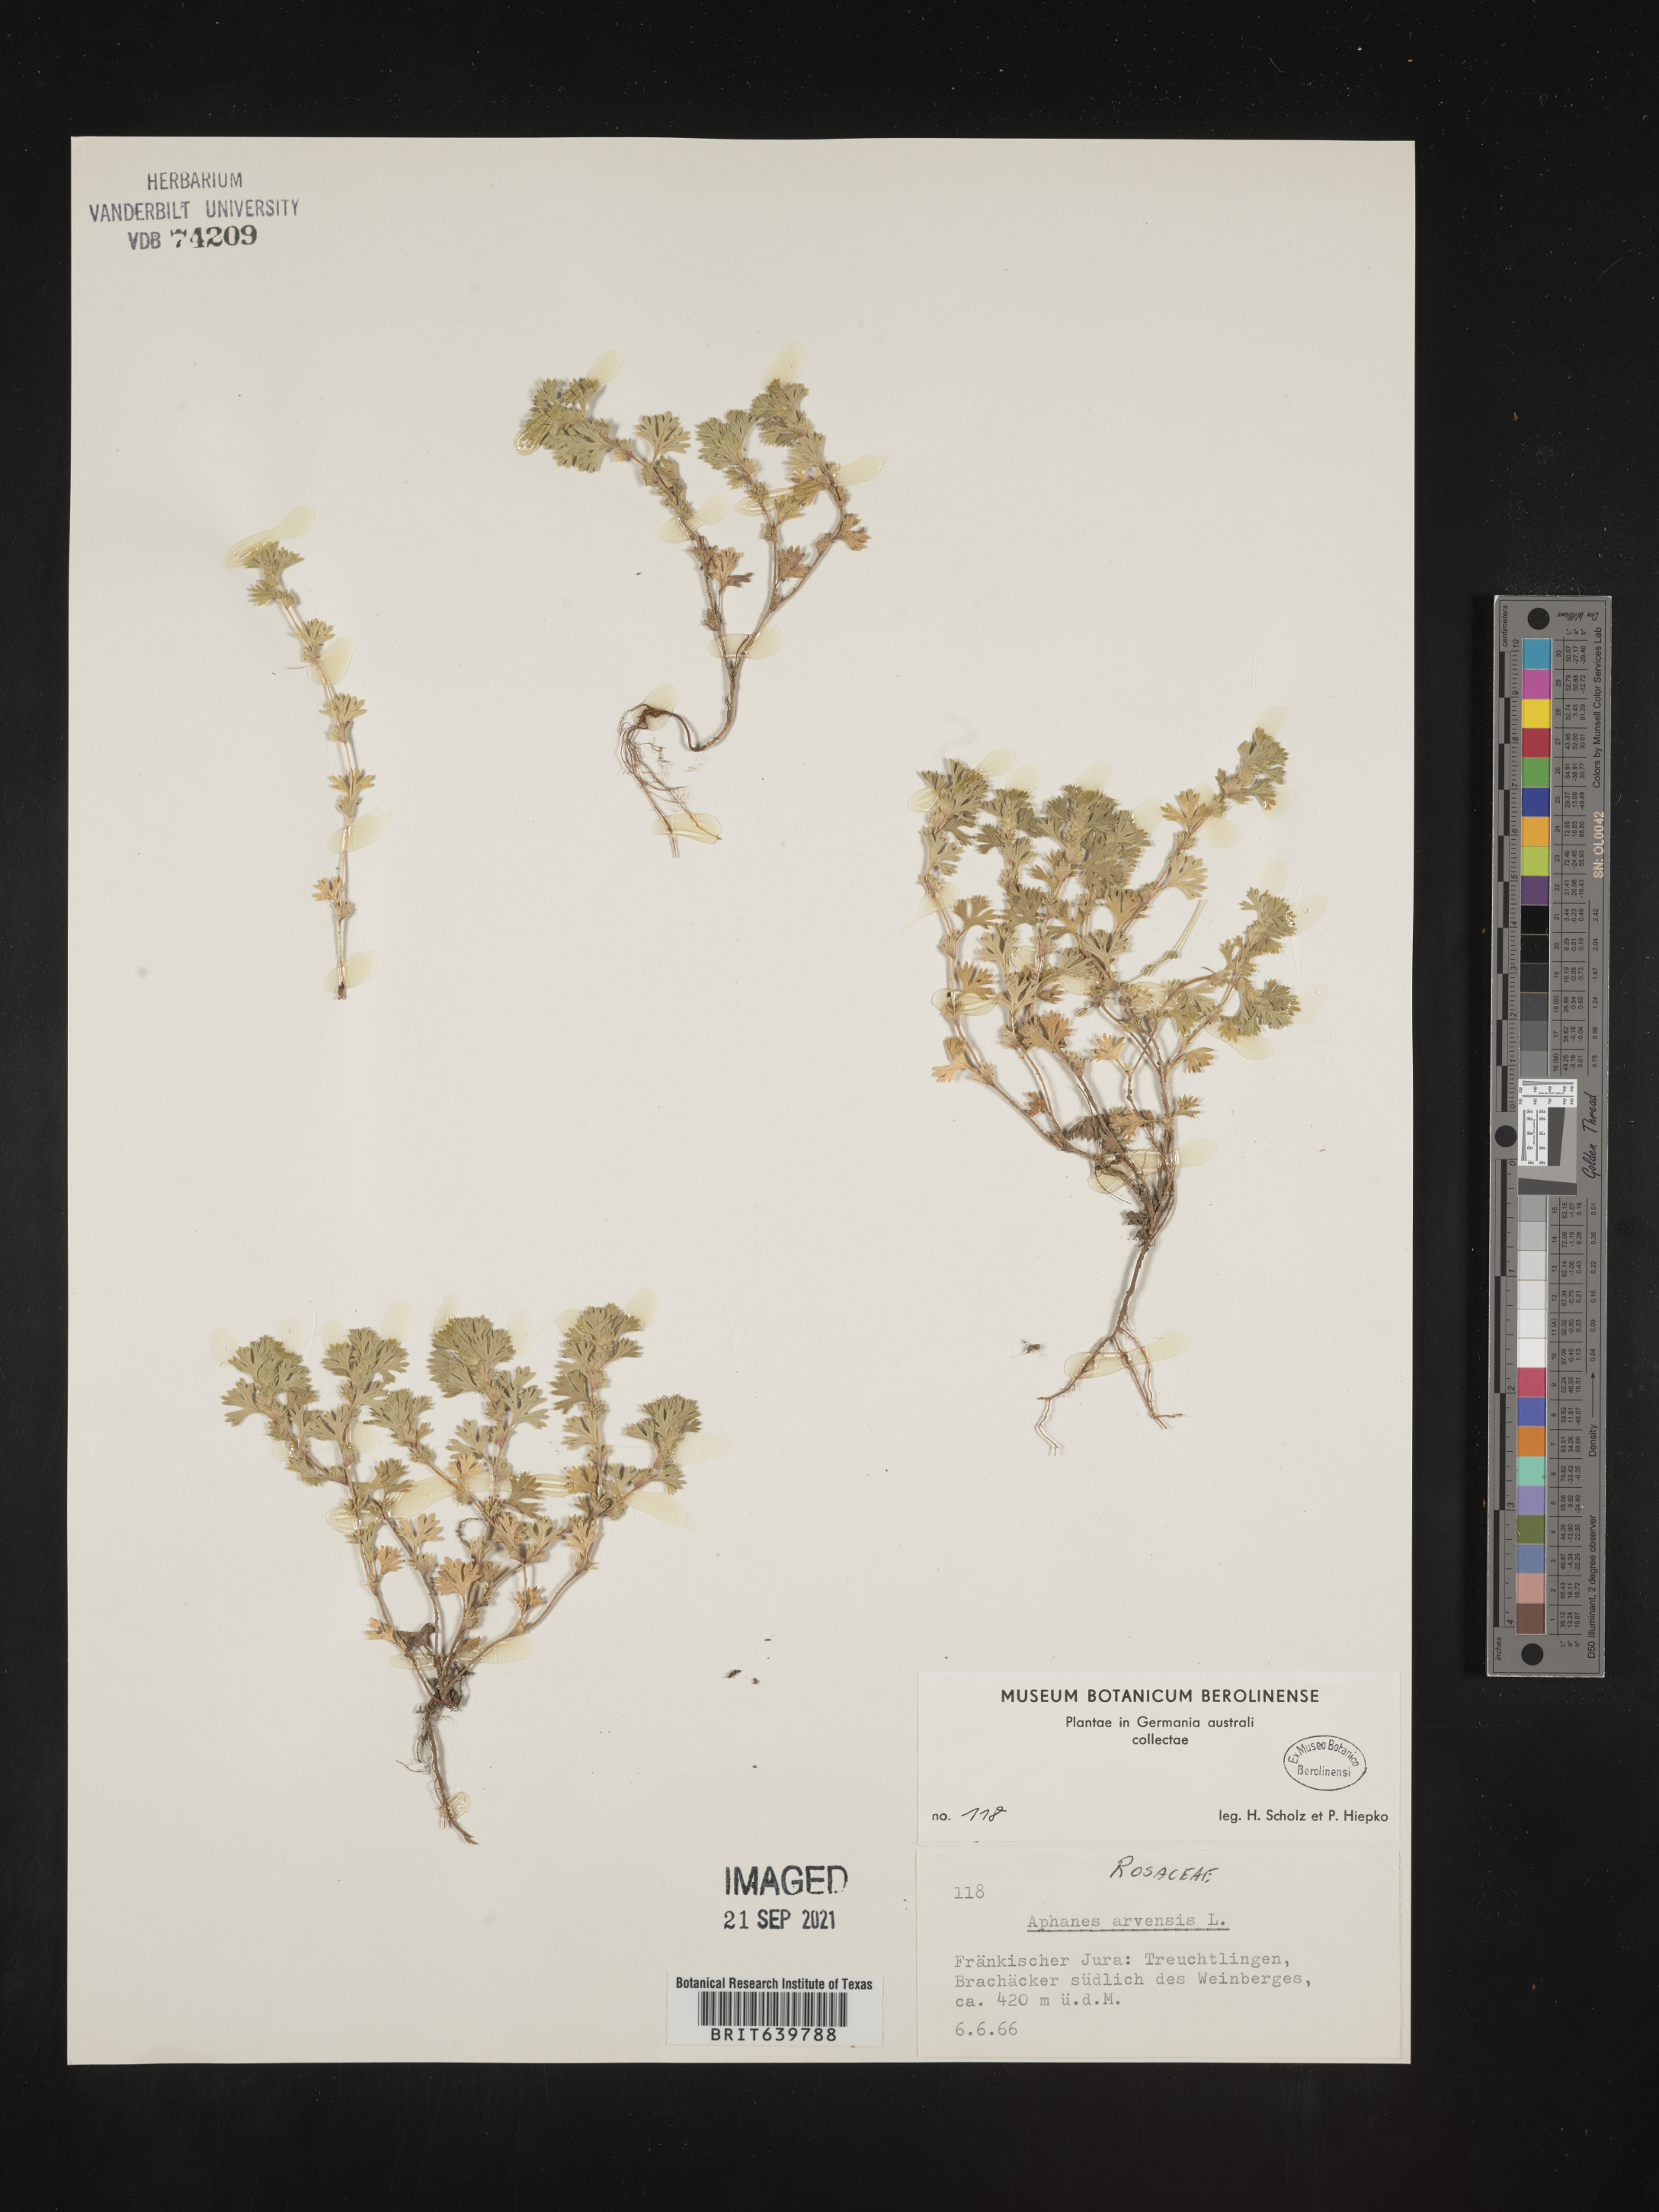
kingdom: Plantae
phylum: Tracheophyta
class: Magnoliopsida
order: Rosales
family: Rosaceae
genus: Aphanes
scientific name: Aphanes
